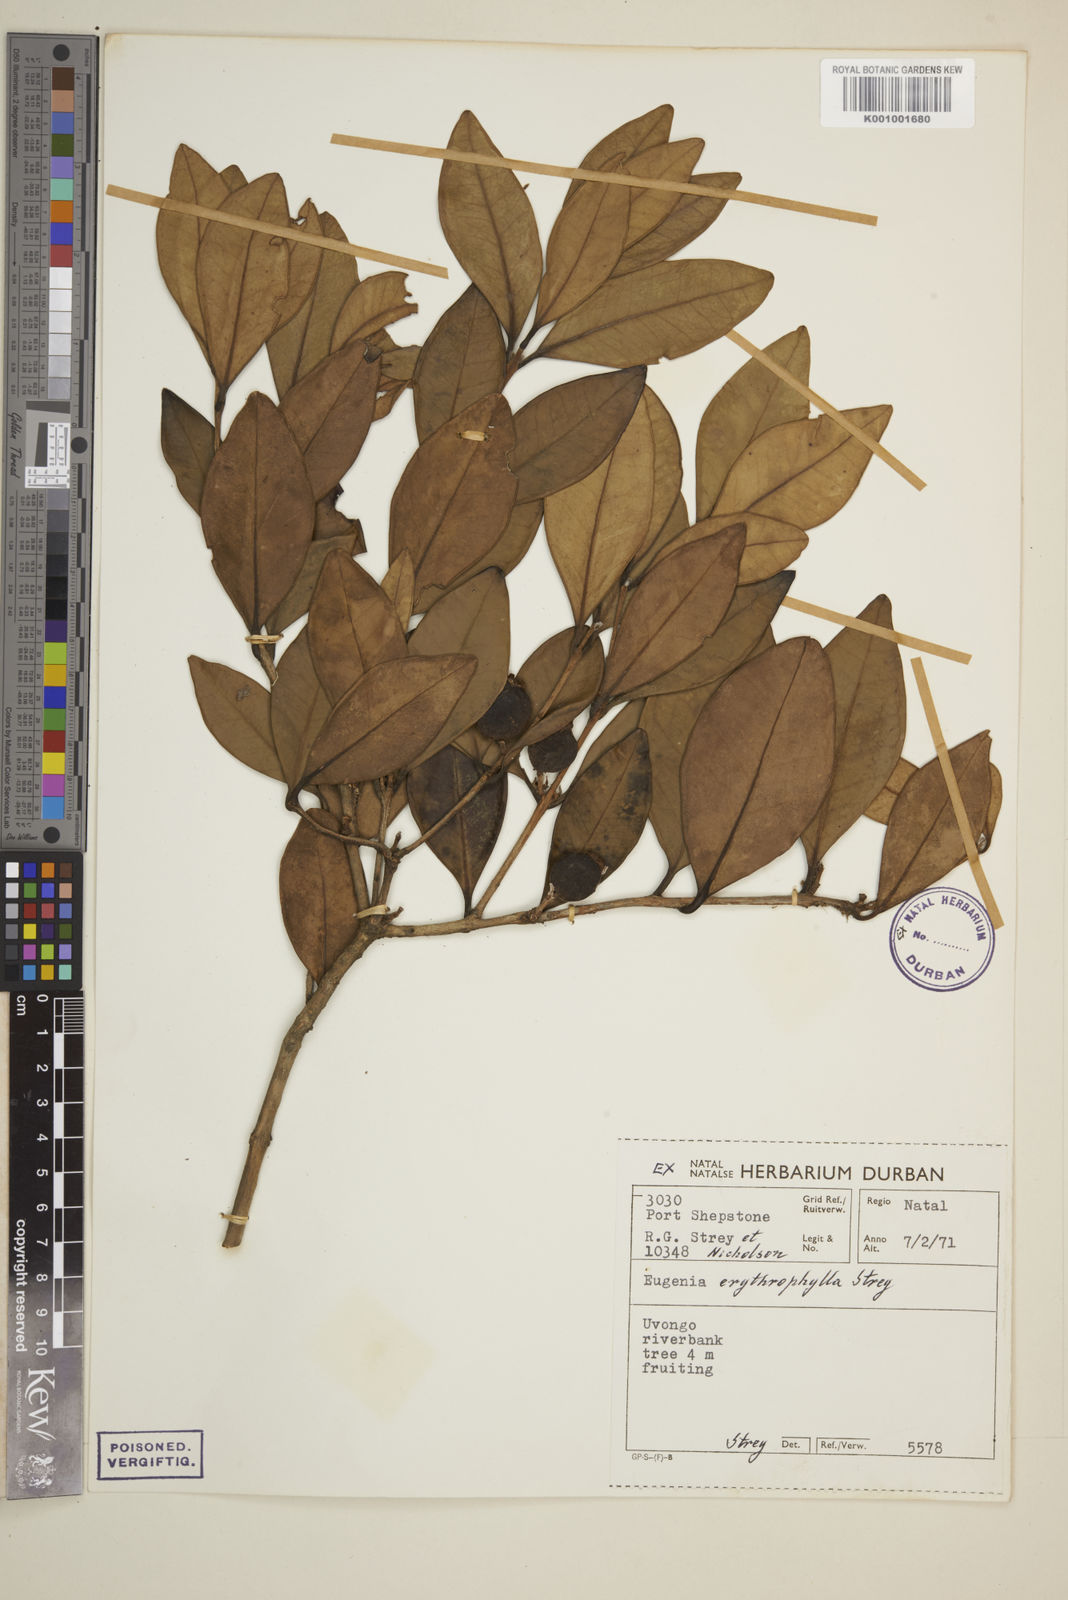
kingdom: Plantae
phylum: Tracheophyta
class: Magnoliopsida
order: Myrtales
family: Myrtaceae
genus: Eugenia
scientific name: Eugenia erythrophylla
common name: Large-leaved myrtle
